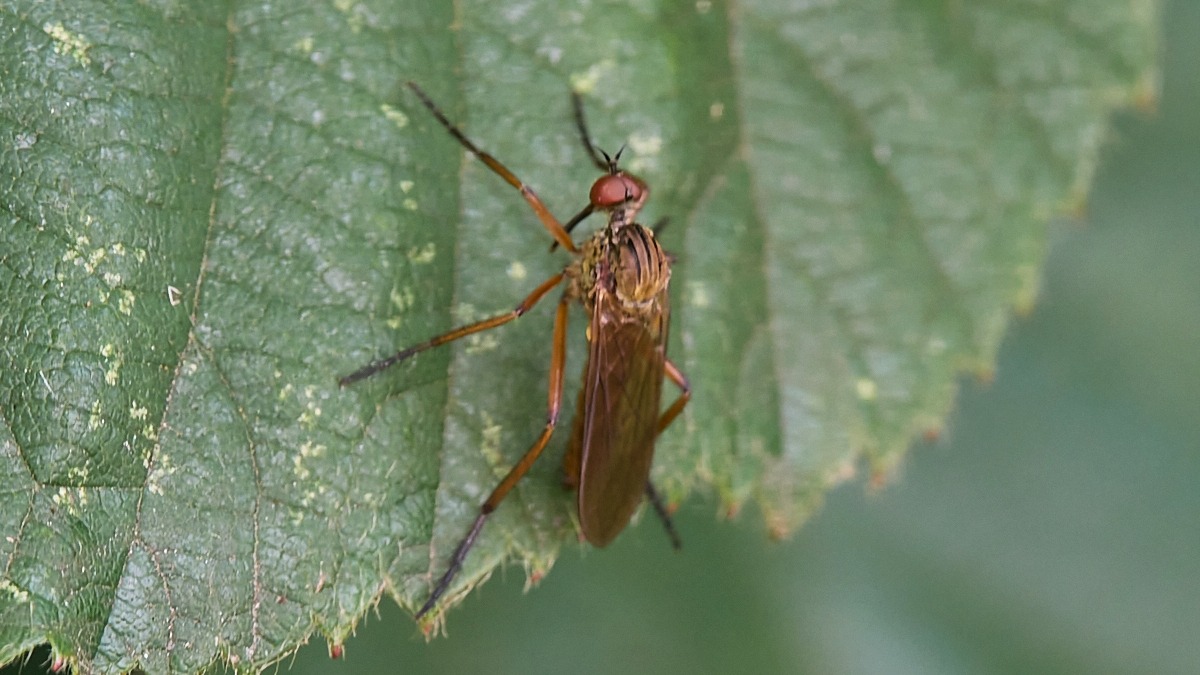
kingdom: Animalia
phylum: Arthropoda
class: Insecta
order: Diptera
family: Empididae
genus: Empis
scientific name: Empis livida
